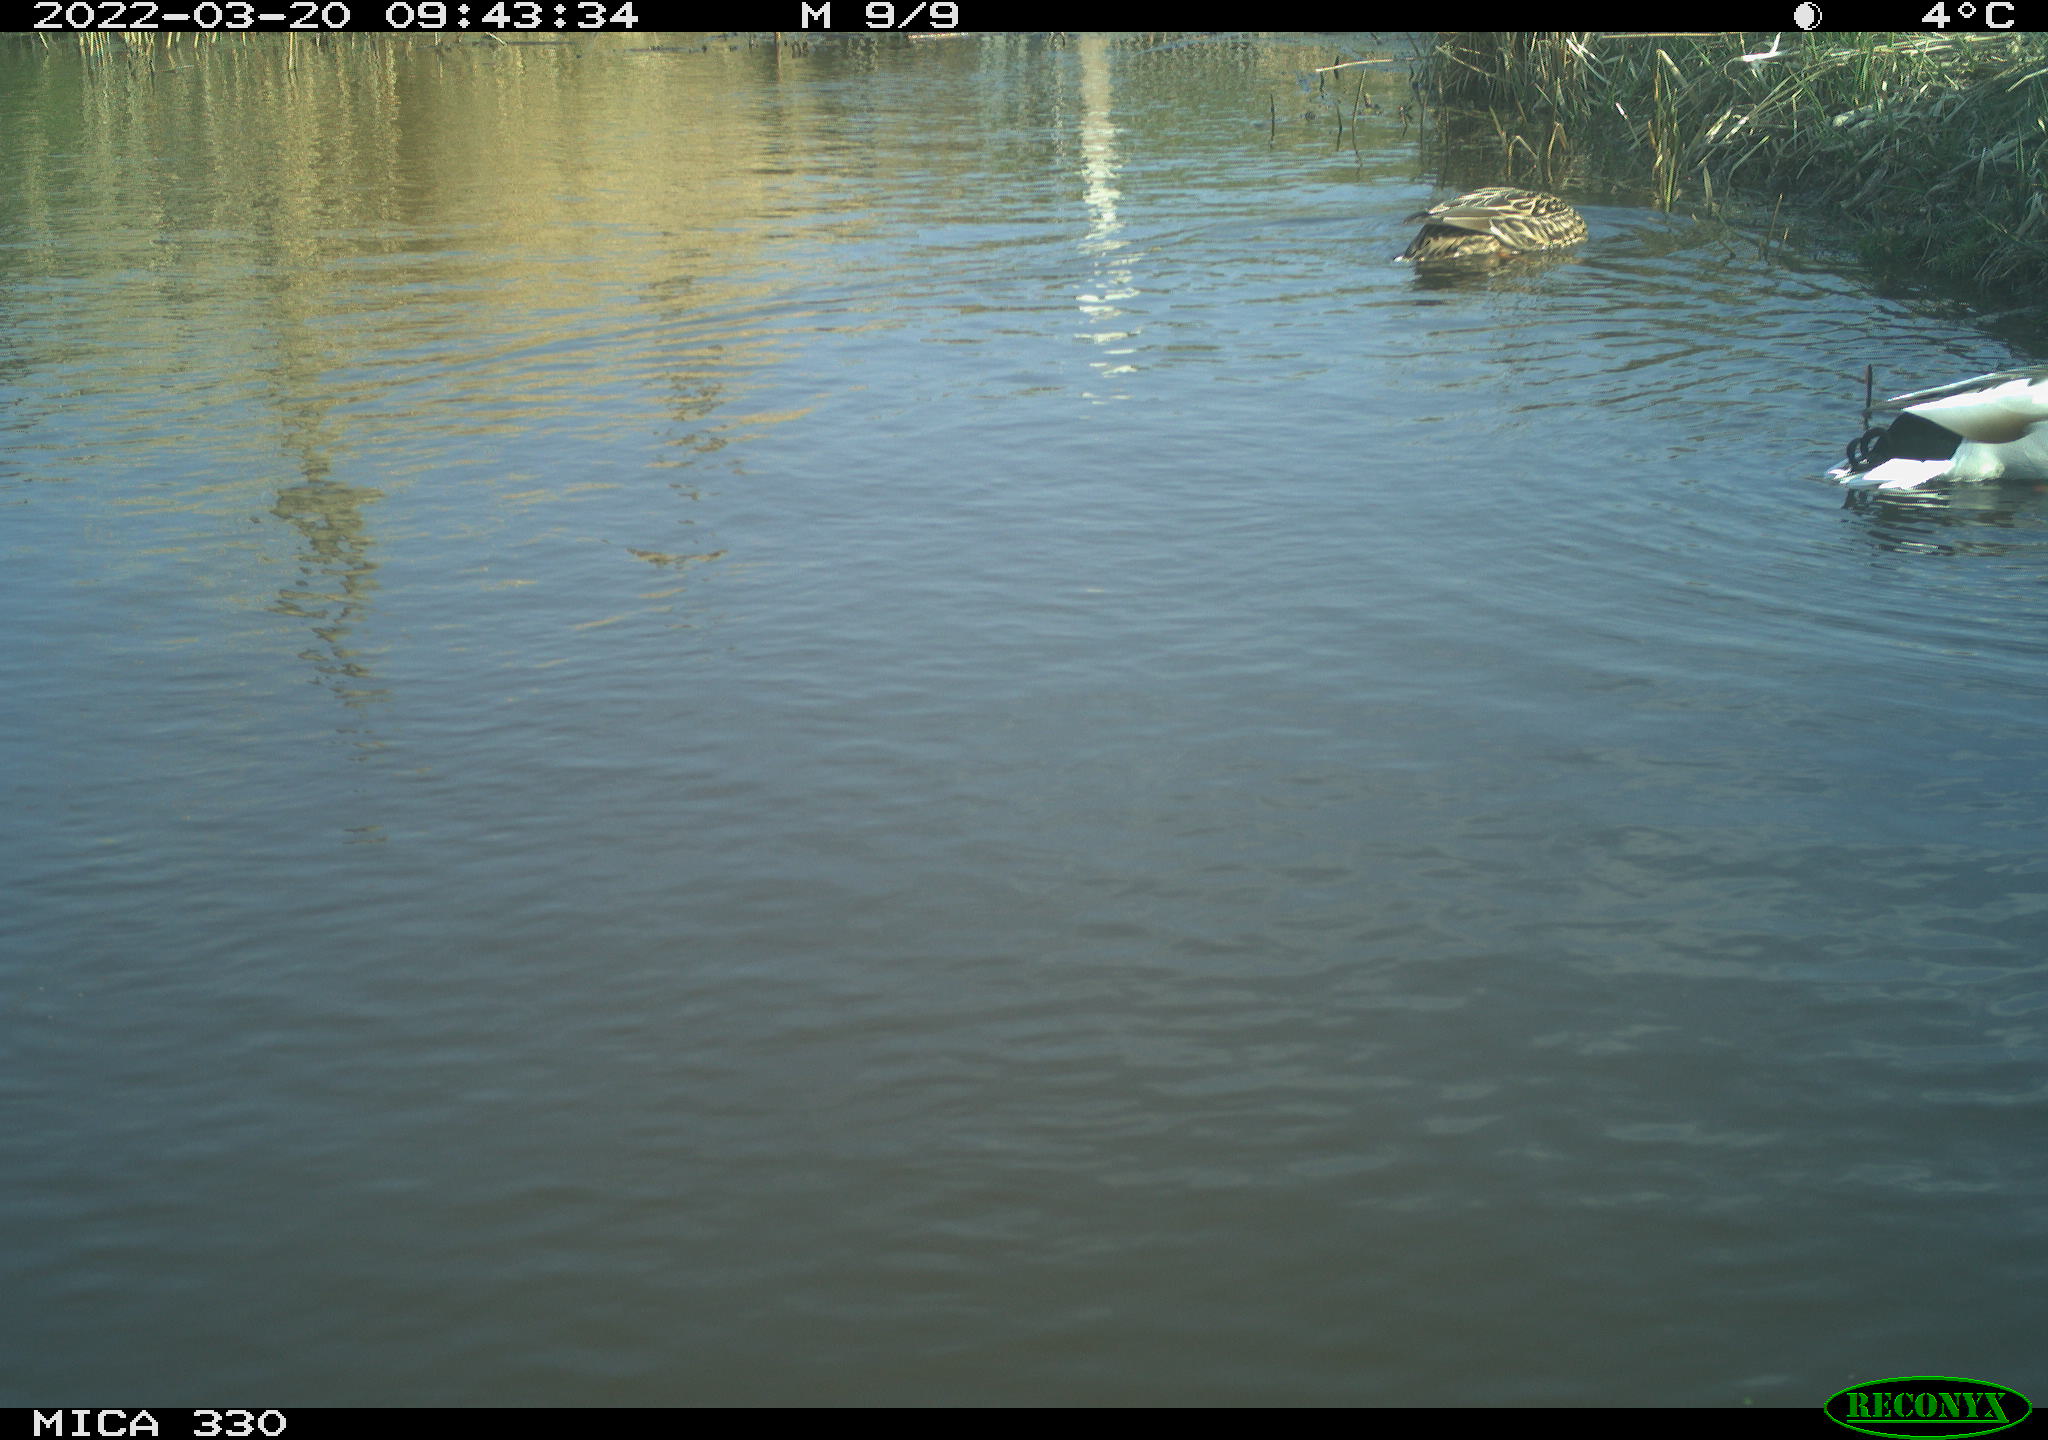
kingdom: Animalia
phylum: Chordata
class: Aves
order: Anseriformes
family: Anatidae
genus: Anas
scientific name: Anas platyrhynchos
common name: Mallard
